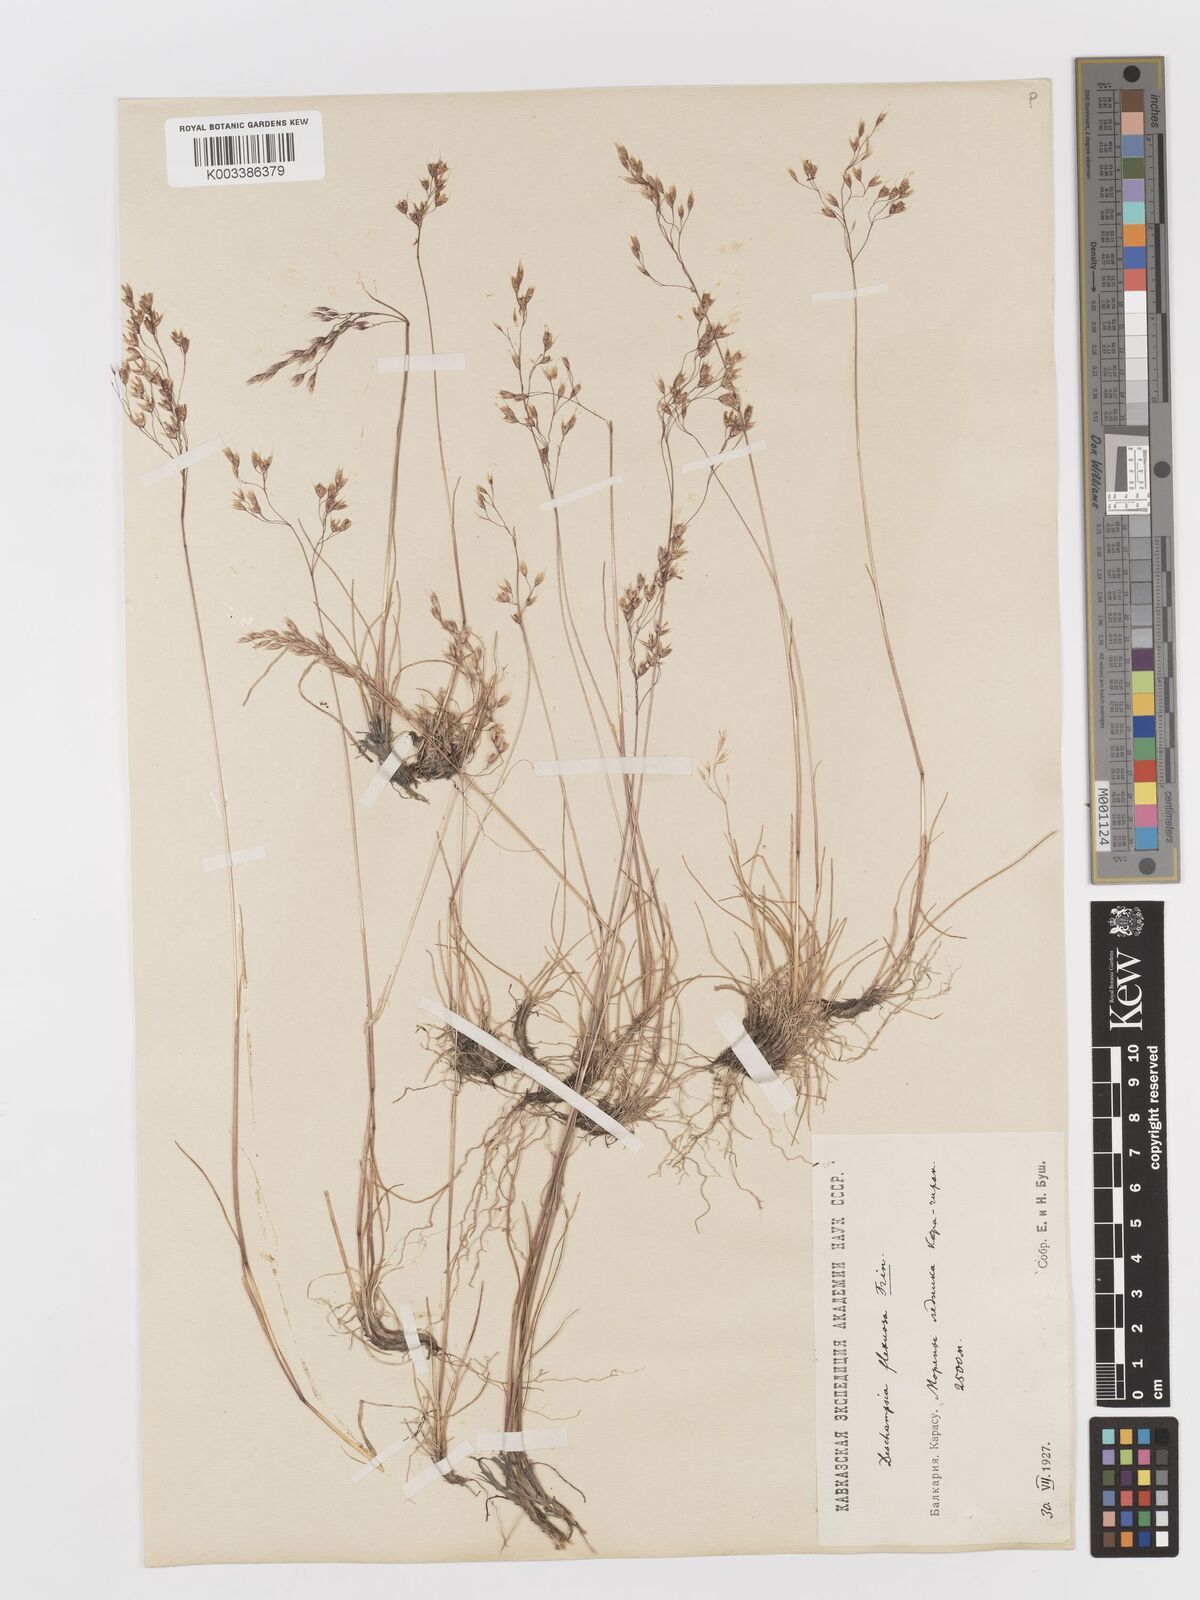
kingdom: Plantae
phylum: Tracheophyta
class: Liliopsida
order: Poales
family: Poaceae
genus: Avenella
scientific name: Avenella flexuosa
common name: Wavy hairgrass
